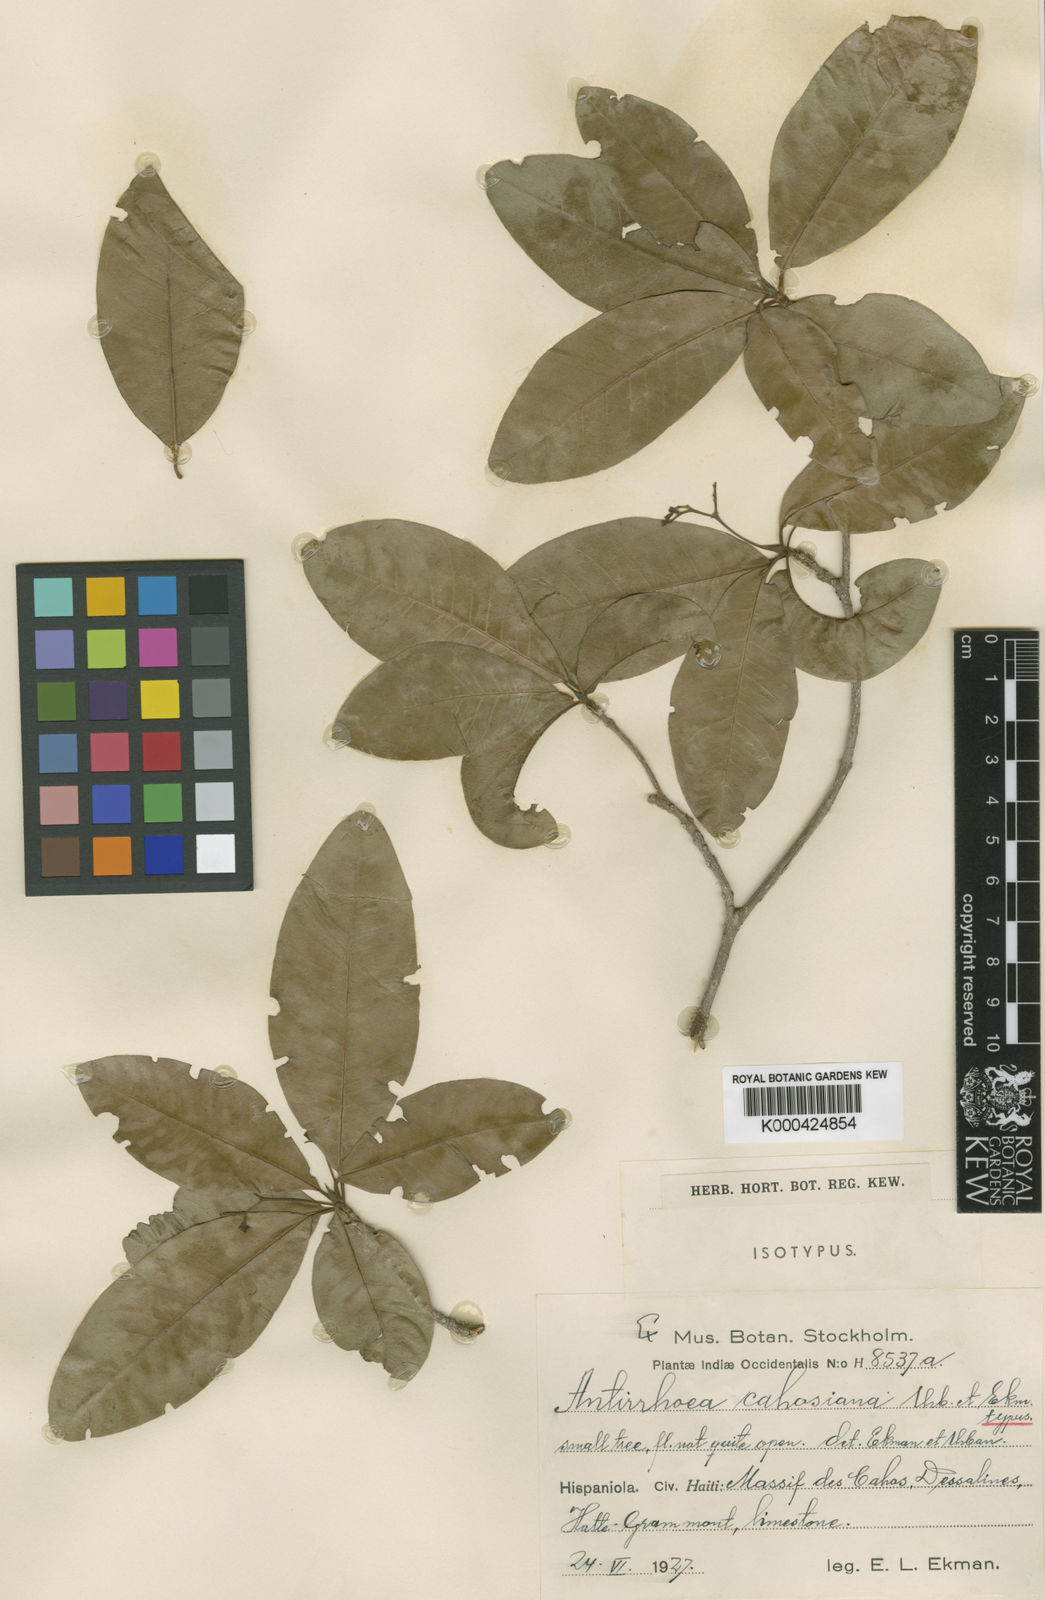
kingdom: Plantae
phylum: Tracheophyta
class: Magnoliopsida
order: Gentianales
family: Rubiaceae
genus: Stenostomum
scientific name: Stenostomum cahosianum
